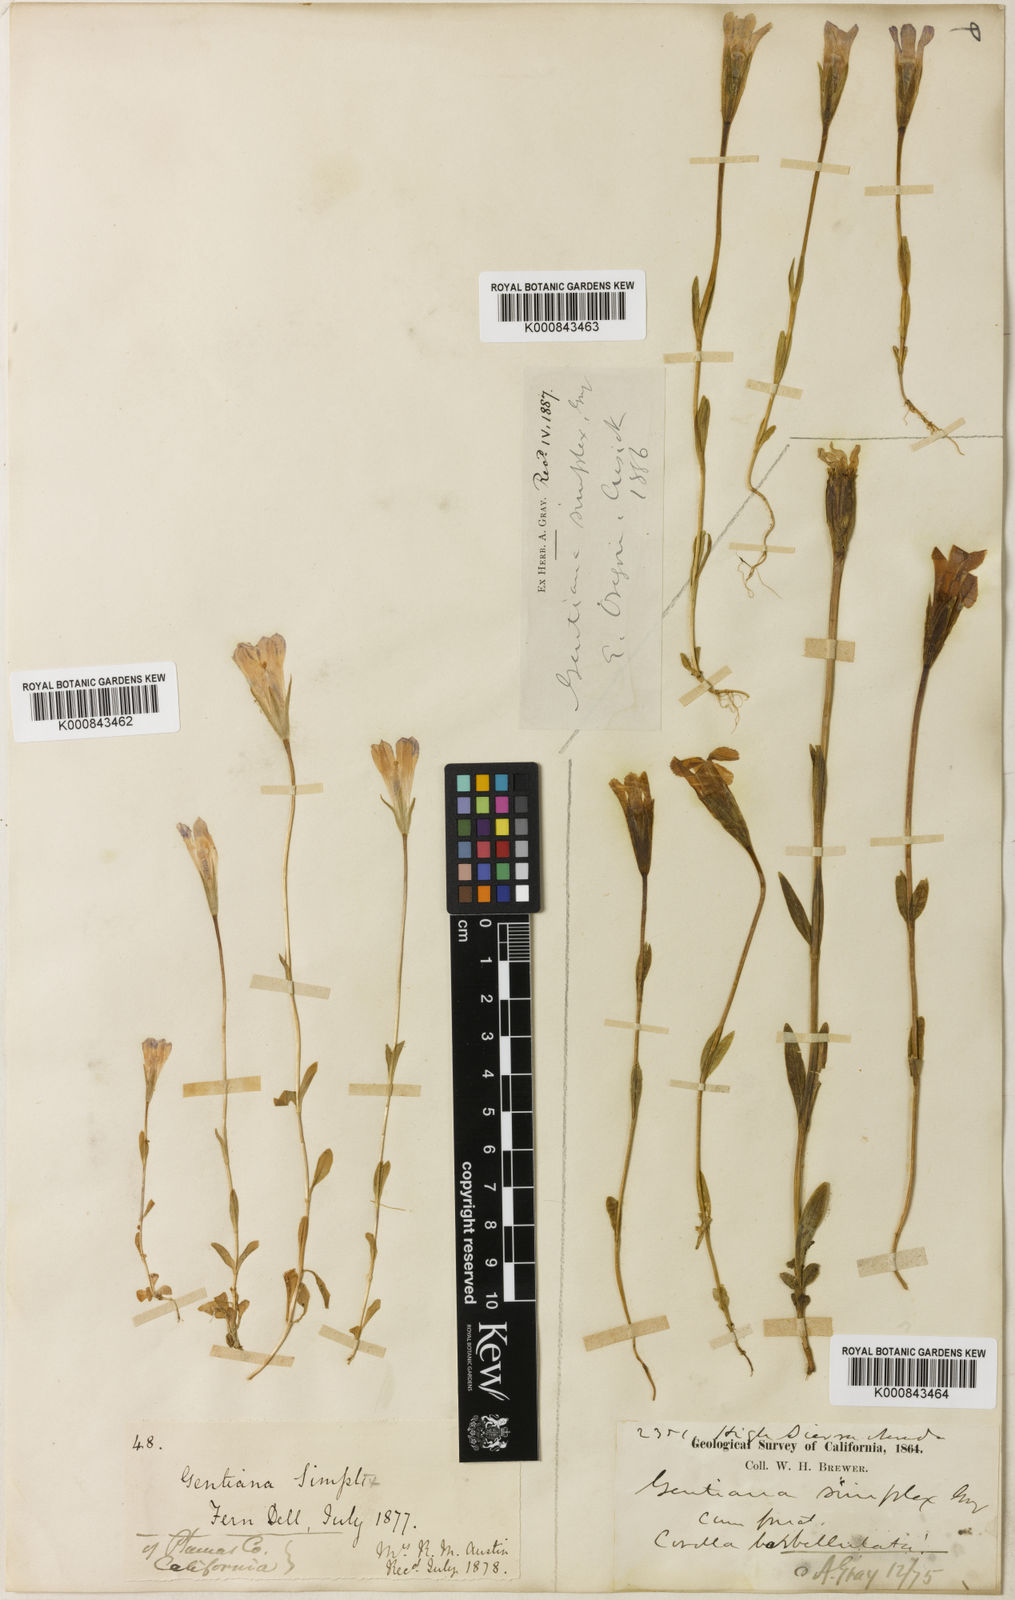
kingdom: Plantae
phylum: Tracheophyta
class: Magnoliopsida
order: Gentianales
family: Gentianaceae
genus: Gentianopsis
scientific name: Gentianopsis simplex
